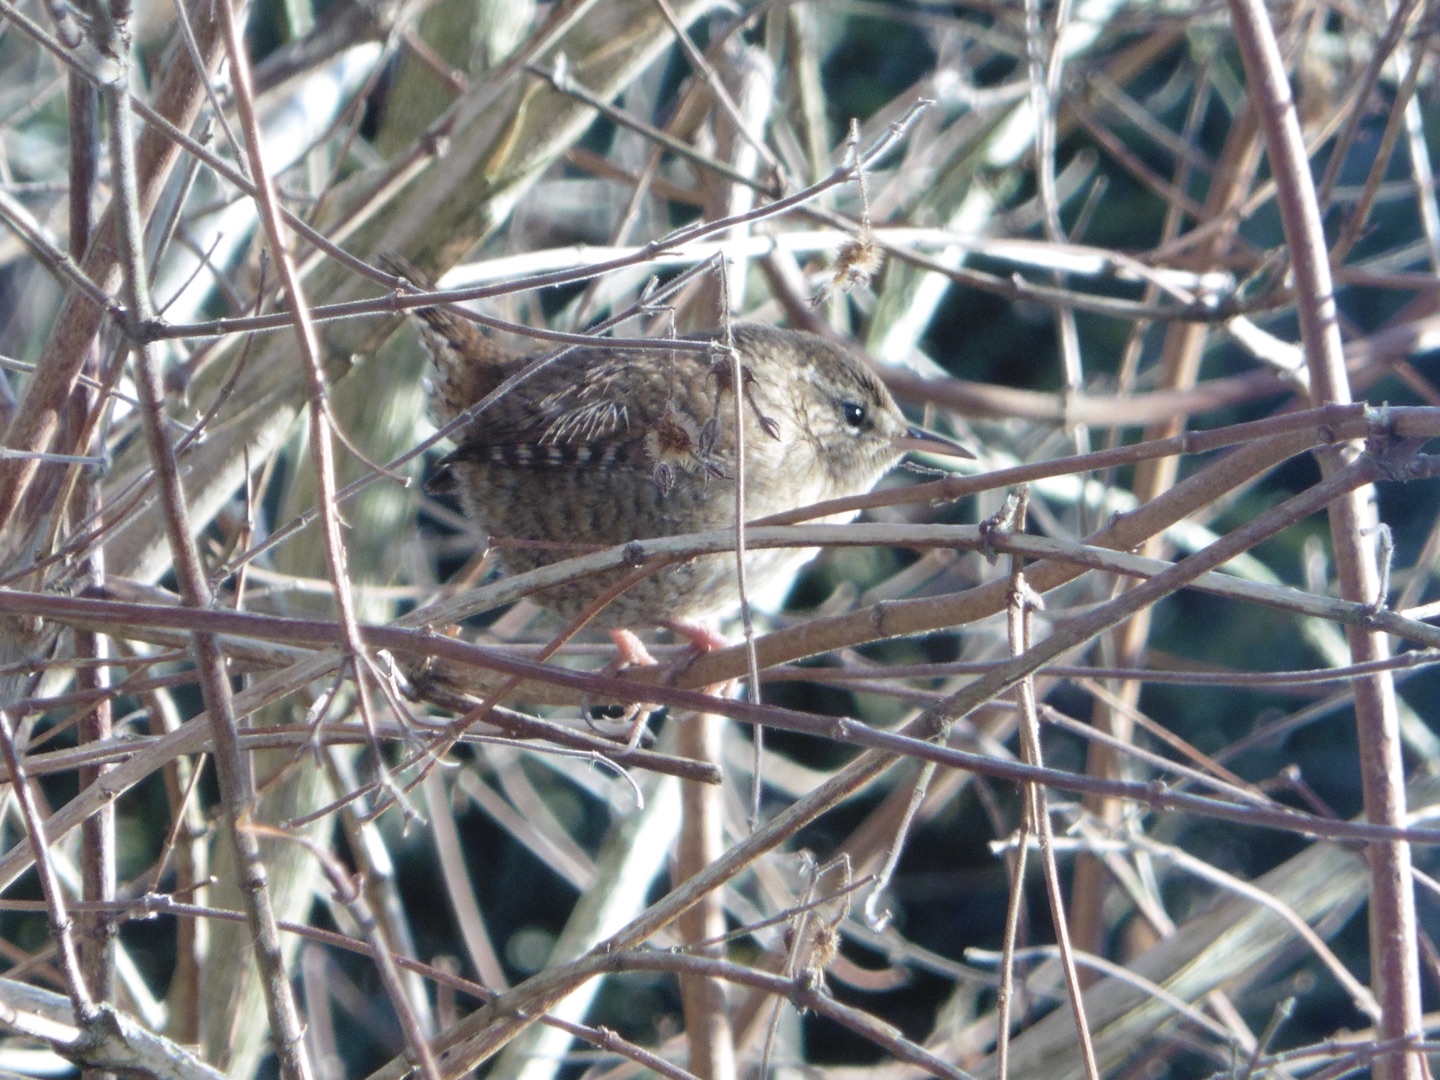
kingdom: Animalia
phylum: Chordata
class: Aves
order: Passeriformes
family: Troglodytidae
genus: Troglodytes
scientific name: Troglodytes troglodytes
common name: Gærdesmutte
